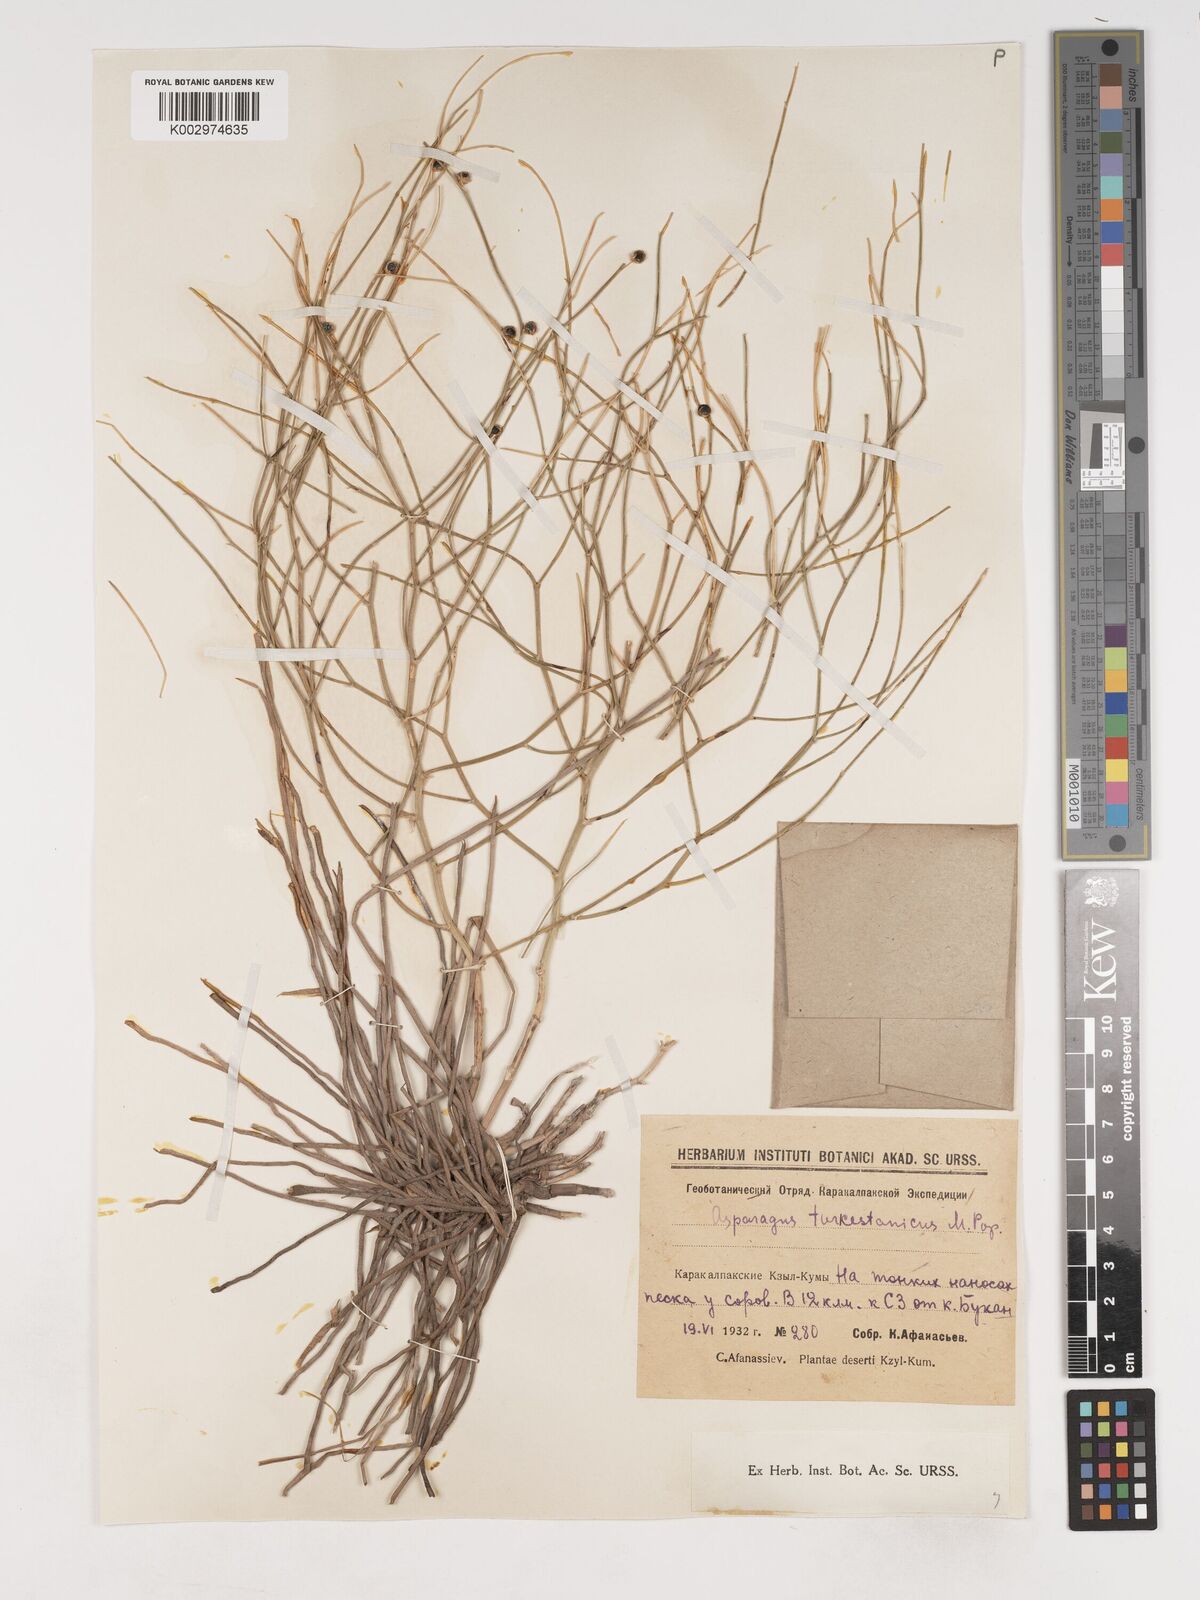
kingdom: Plantae
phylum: Tracheophyta
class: Liliopsida
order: Asparagales
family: Asparagaceae
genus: Asparagus
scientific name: Asparagus turkestanicus
